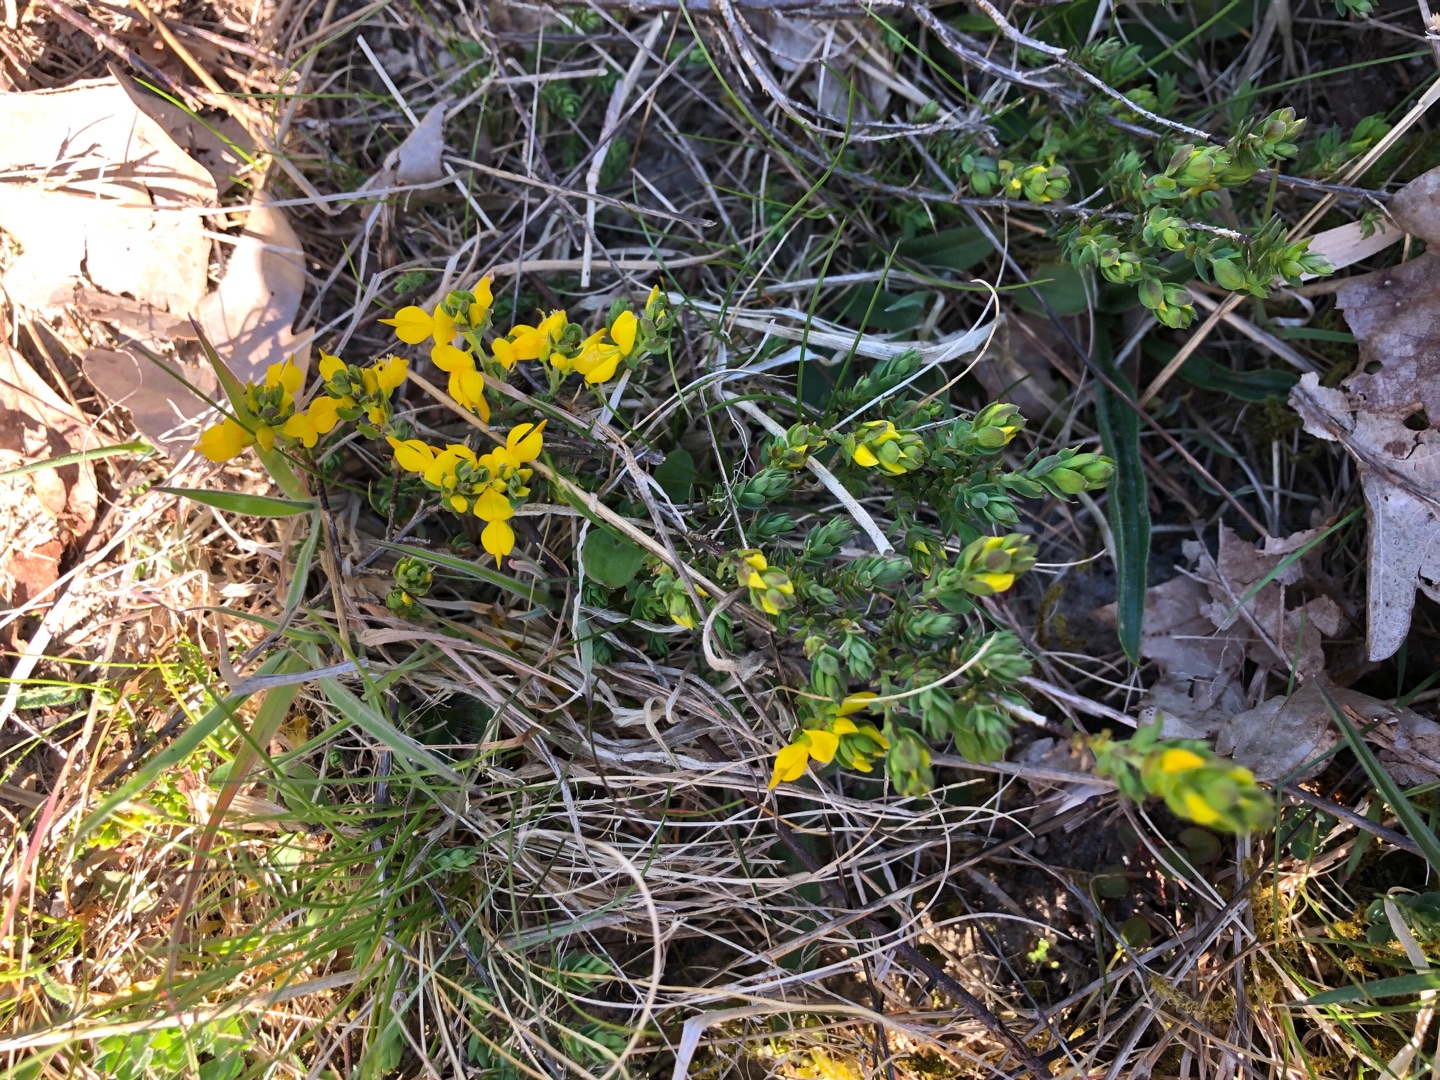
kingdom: Plantae
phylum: Tracheophyta
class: Magnoliopsida
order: Fabales
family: Fabaceae
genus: Genista
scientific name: Genista anglica
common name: Engelsk visse
